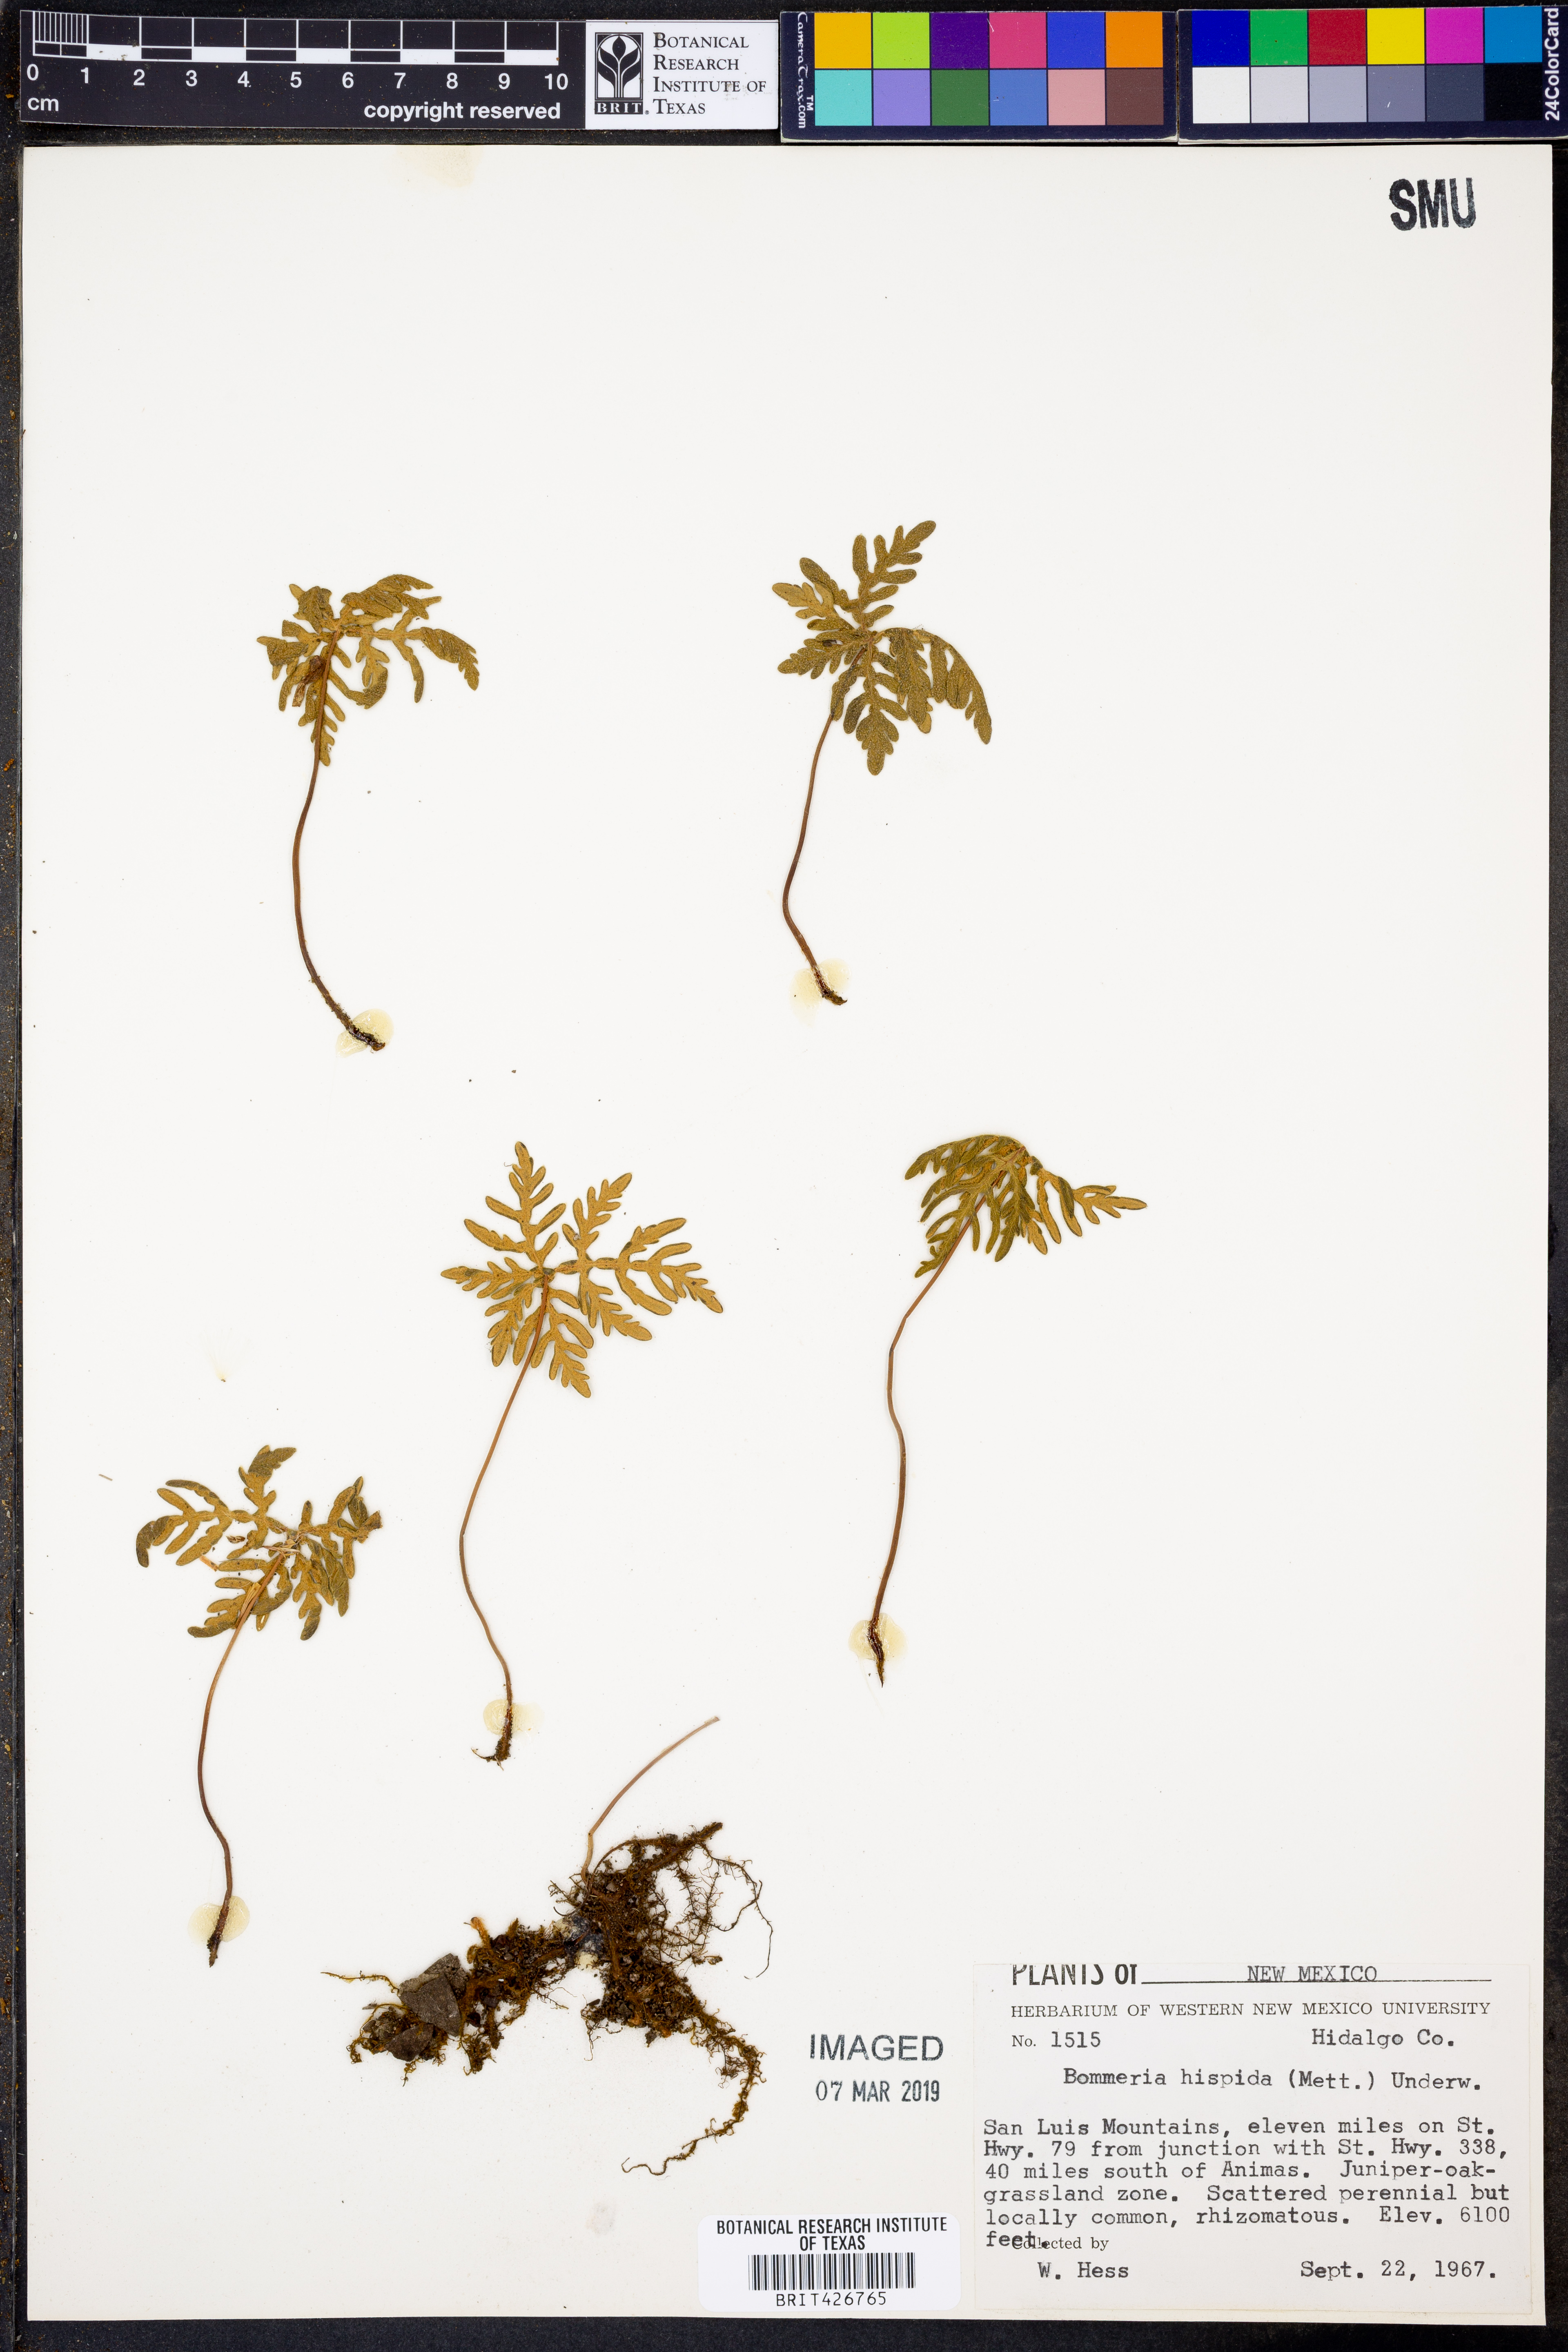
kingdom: Plantae
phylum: Tracheophyta
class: Polypodiopsida
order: Polypodiales
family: Pteridaceae
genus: Bommeria
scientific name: Bommeria hispida
